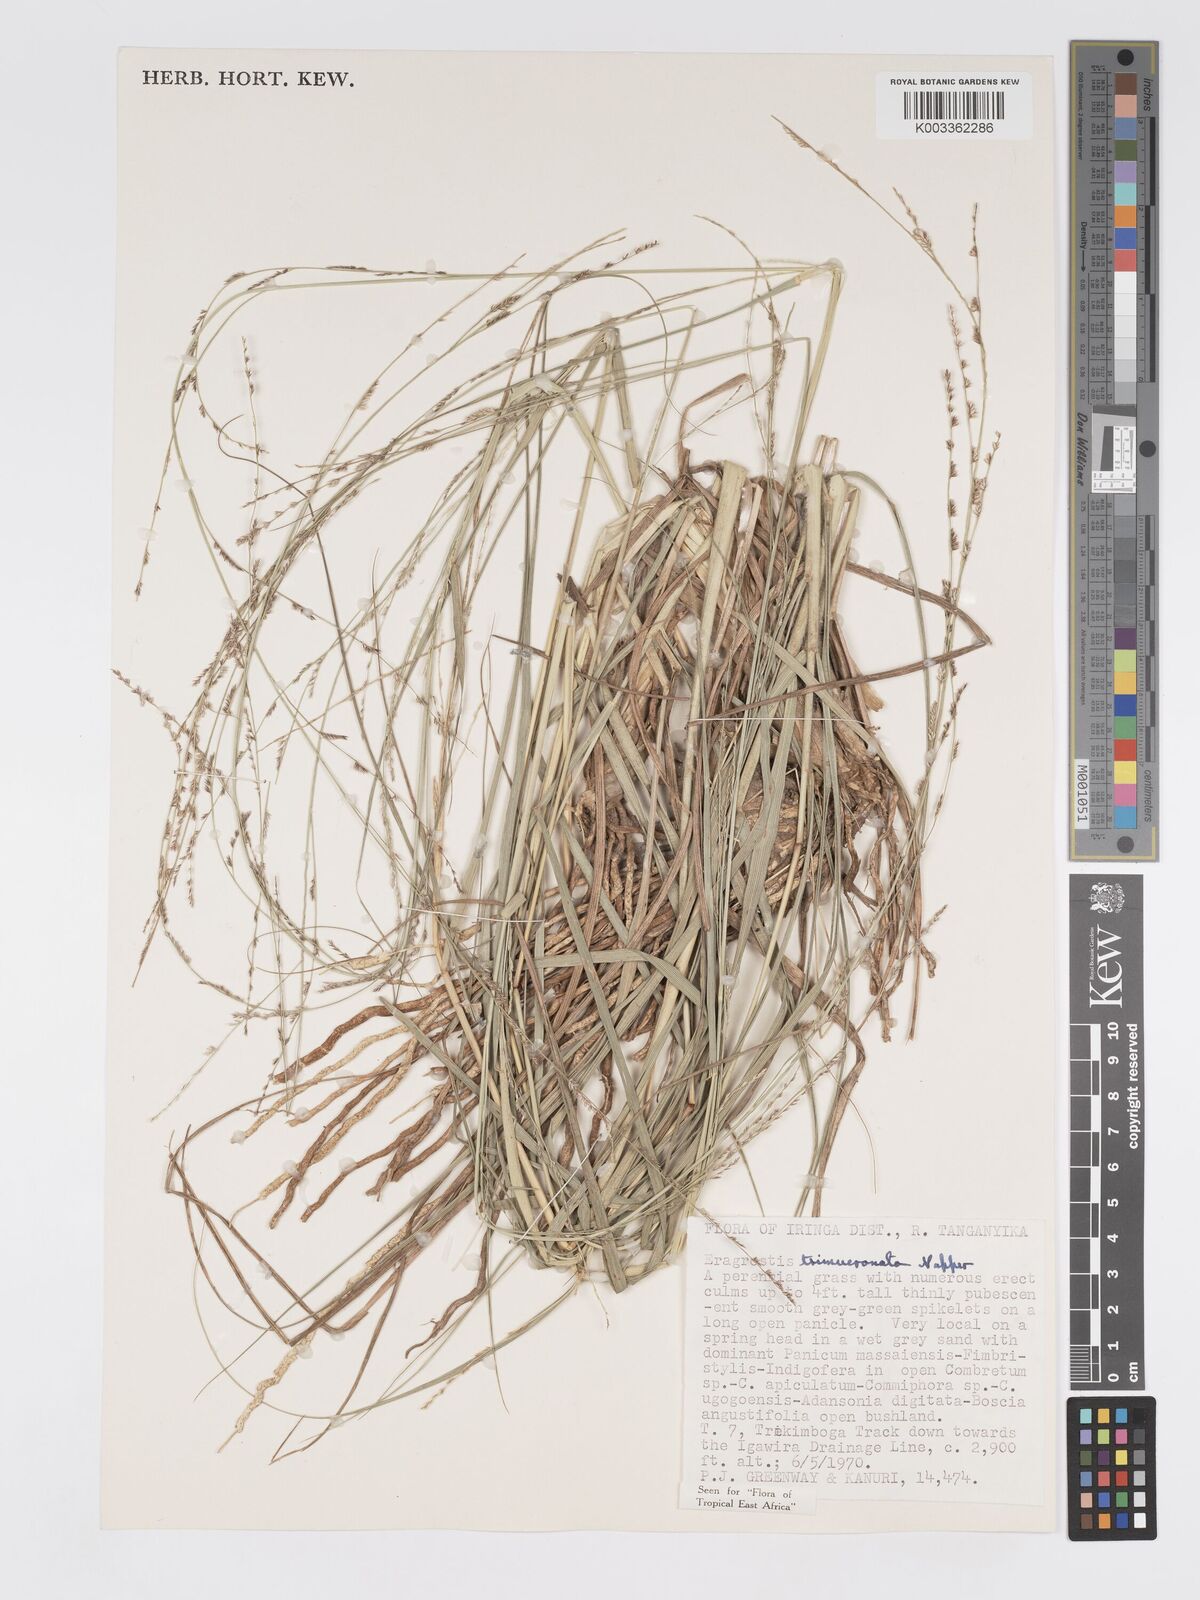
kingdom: Plantae
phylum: Tracheophyta
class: Liliopsida
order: Poales
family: Poaceae
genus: Eragrostis
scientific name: Eragrostis trimucronata
